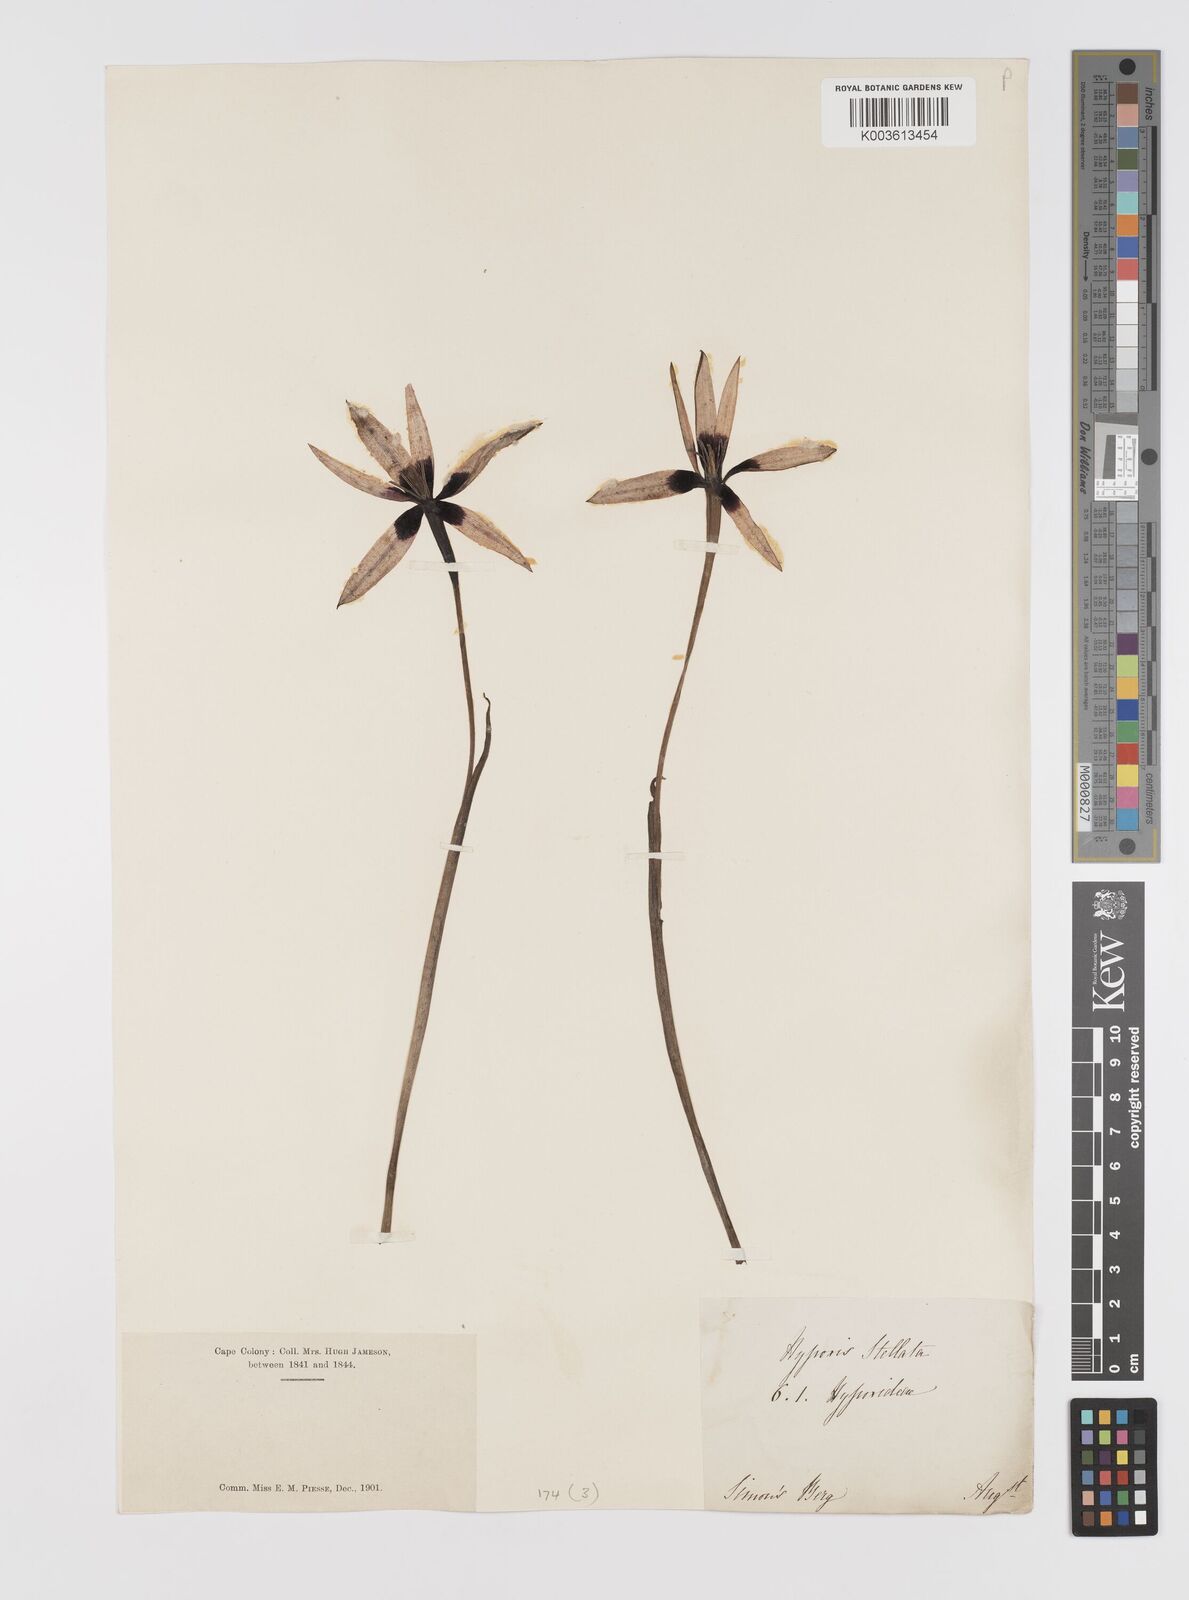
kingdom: Plantae
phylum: Tracheophyta
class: Liliopsida
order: Asparagales
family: Hypoxidaceae
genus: Pauridia
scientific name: Pauridia capensis
